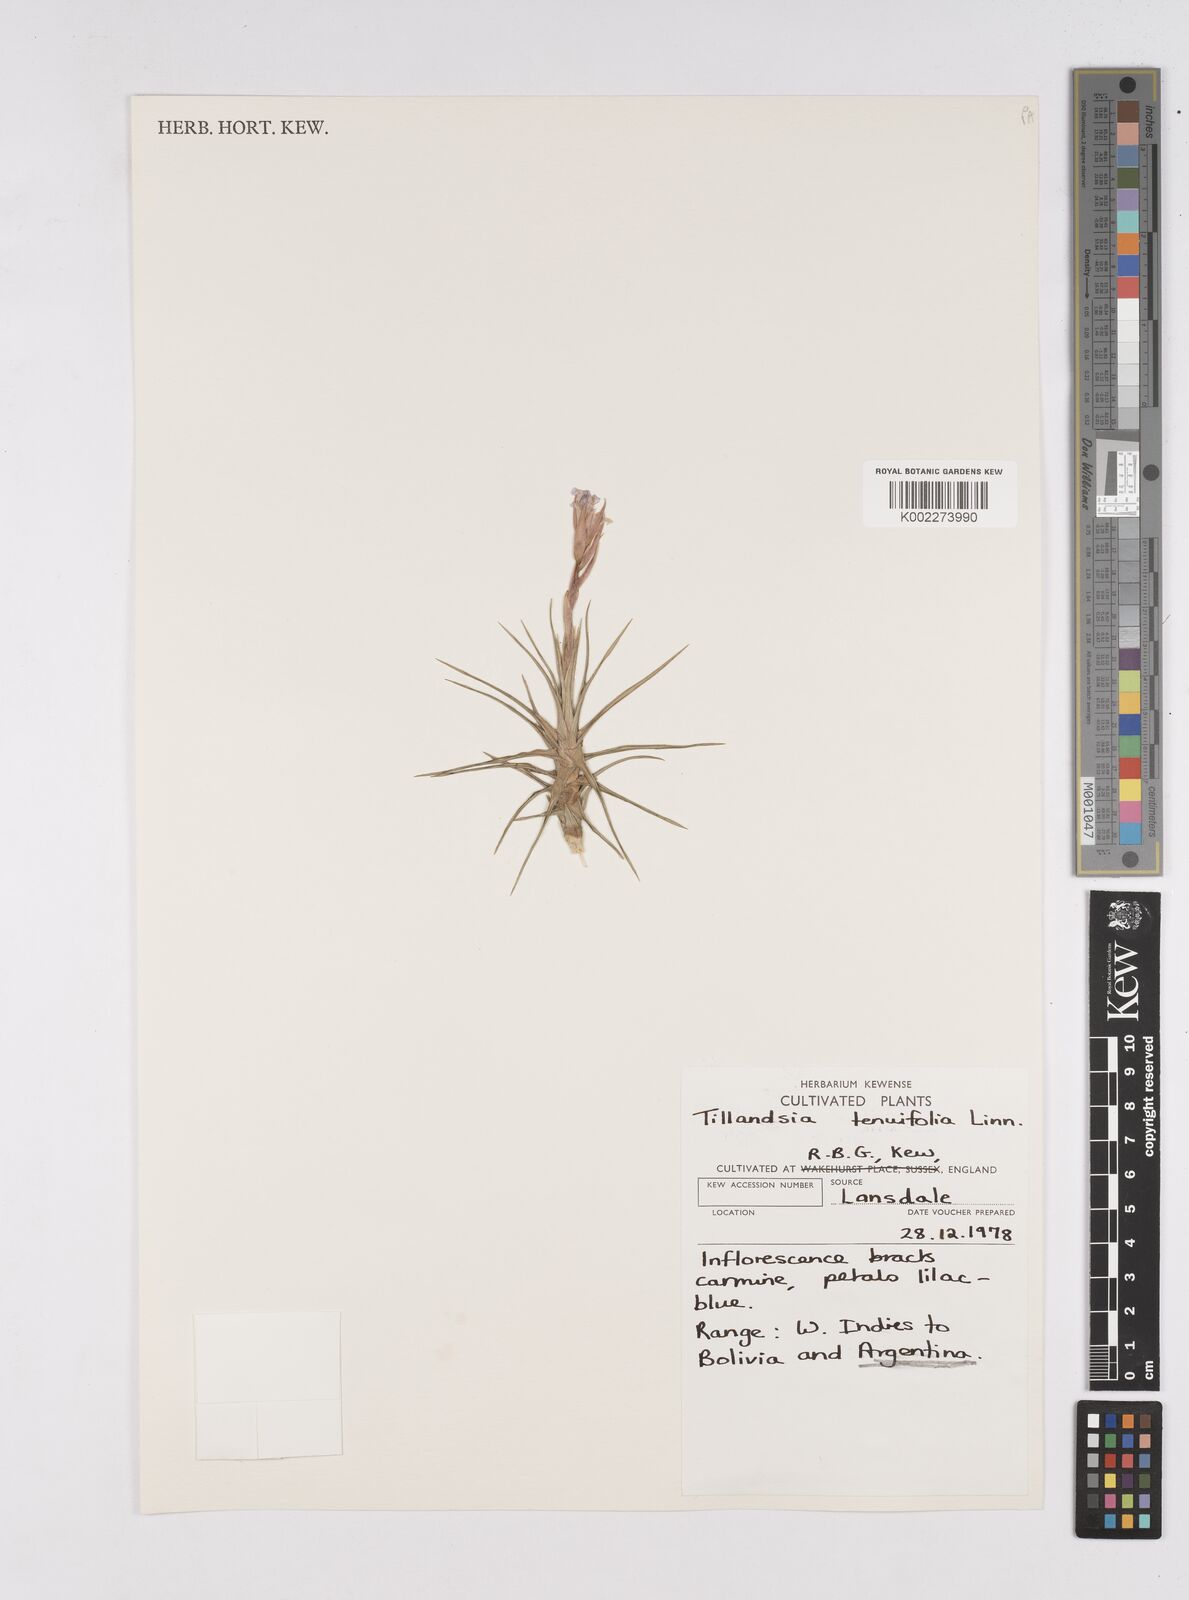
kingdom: Plantae
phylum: Tracheophyta
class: Liliopsida
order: Poales
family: Bromeliaceae
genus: Tillandsia
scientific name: Tillandsia tenuifolia
